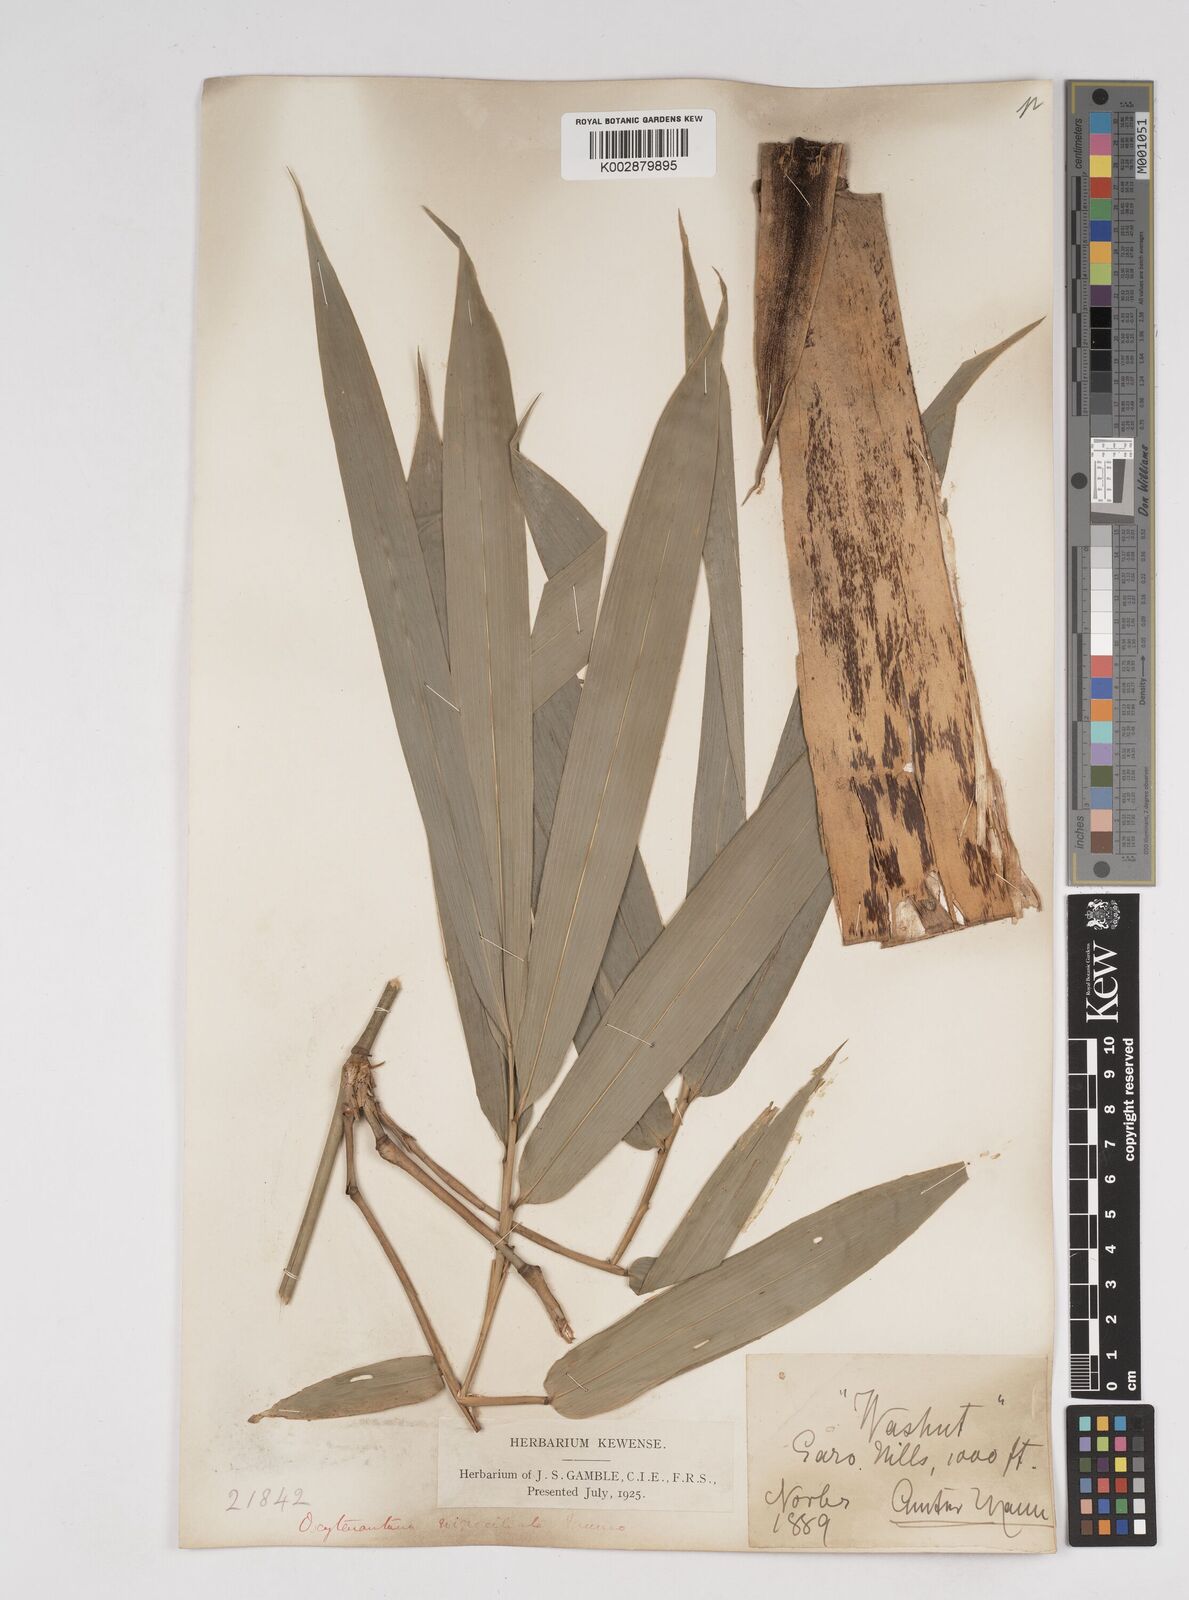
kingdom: Plantae
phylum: Tracheophyta
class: Liliopsida
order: Poales
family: Poaceae
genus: Gigantochloa
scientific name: Gigantochloa
